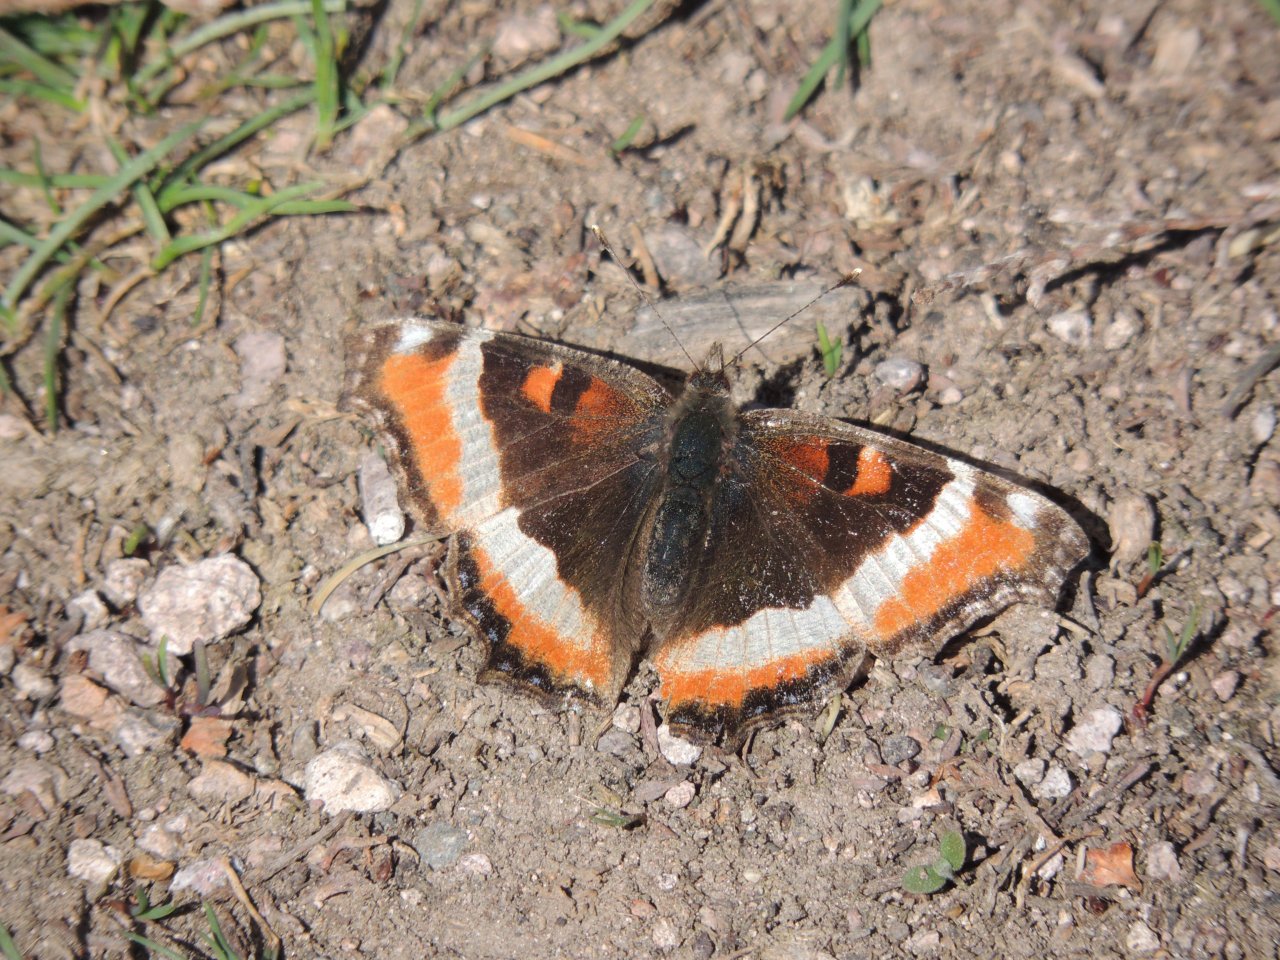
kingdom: Animalia
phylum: Arthropoda
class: Insecta
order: Lepidoptera
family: Nymphalidae
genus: Aglais
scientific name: Aglais milberti
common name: Milbert's Tortoiseshell
